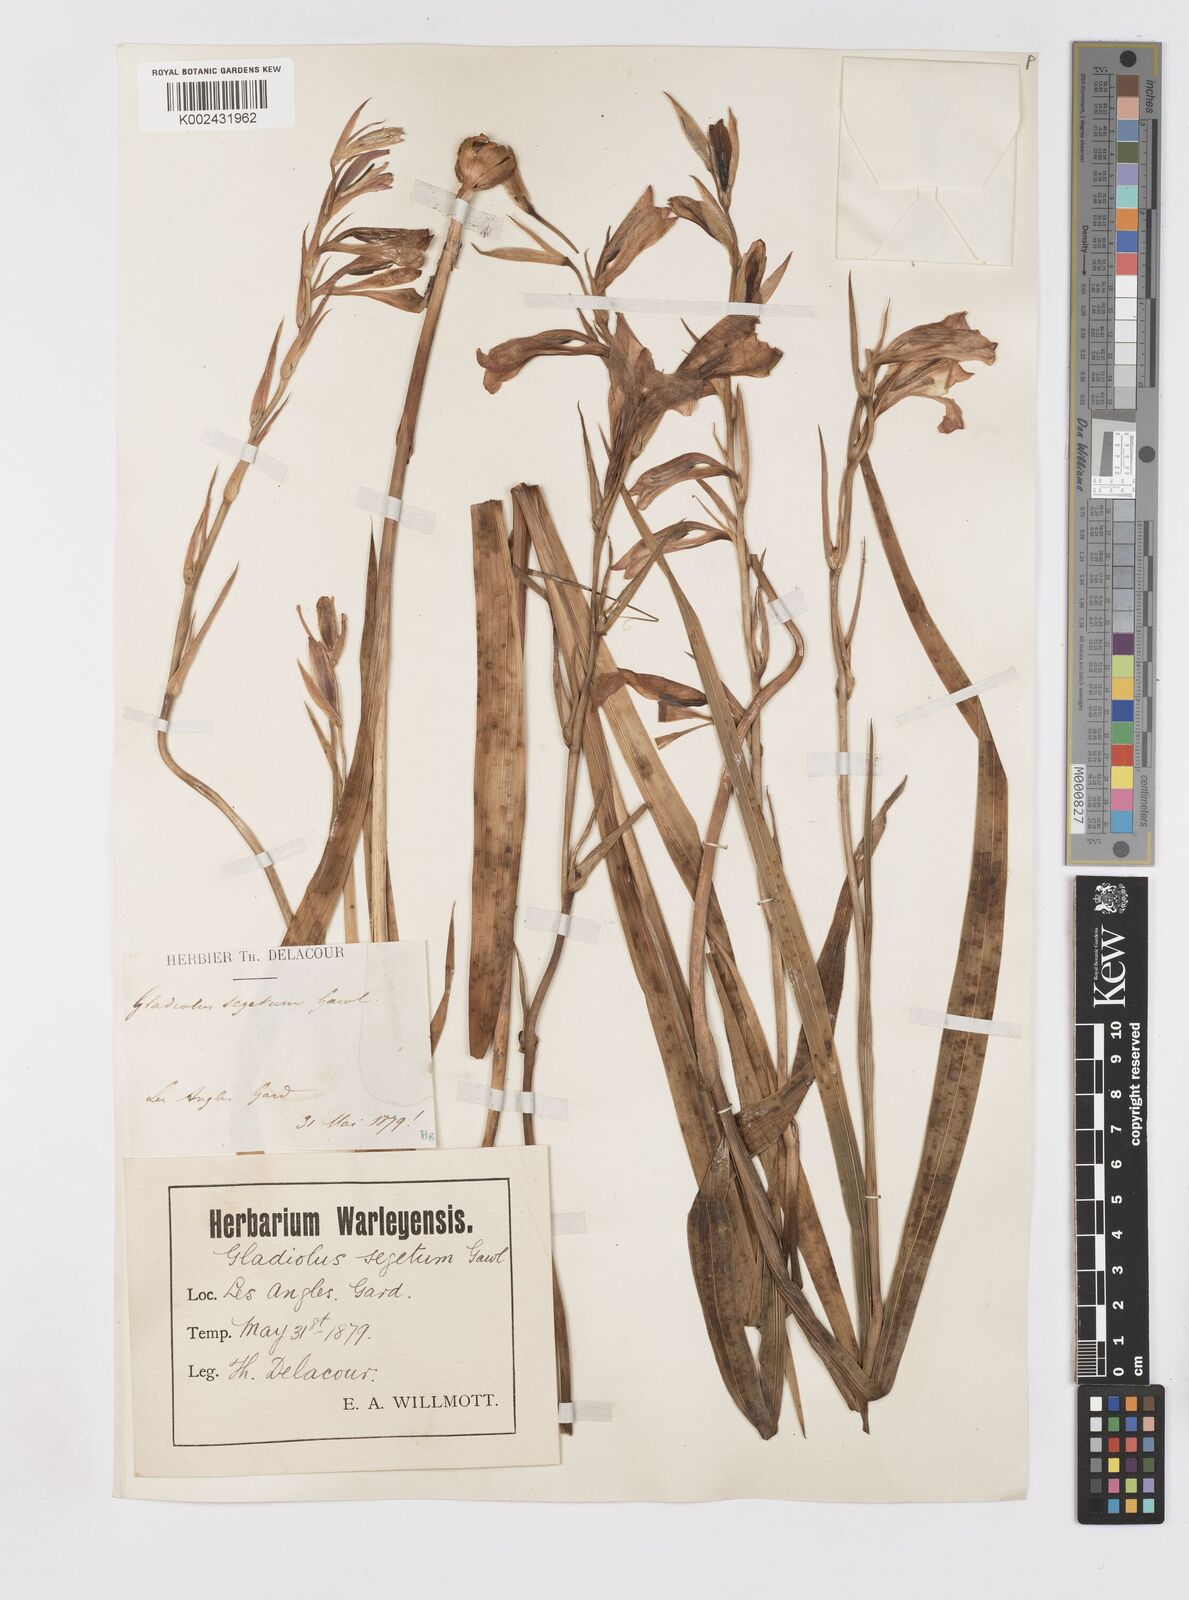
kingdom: Plantae
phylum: Tracheophyta
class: Liliopsida
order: Asparagales
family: Iridaceae
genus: Gladiolus
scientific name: Gladiolus
